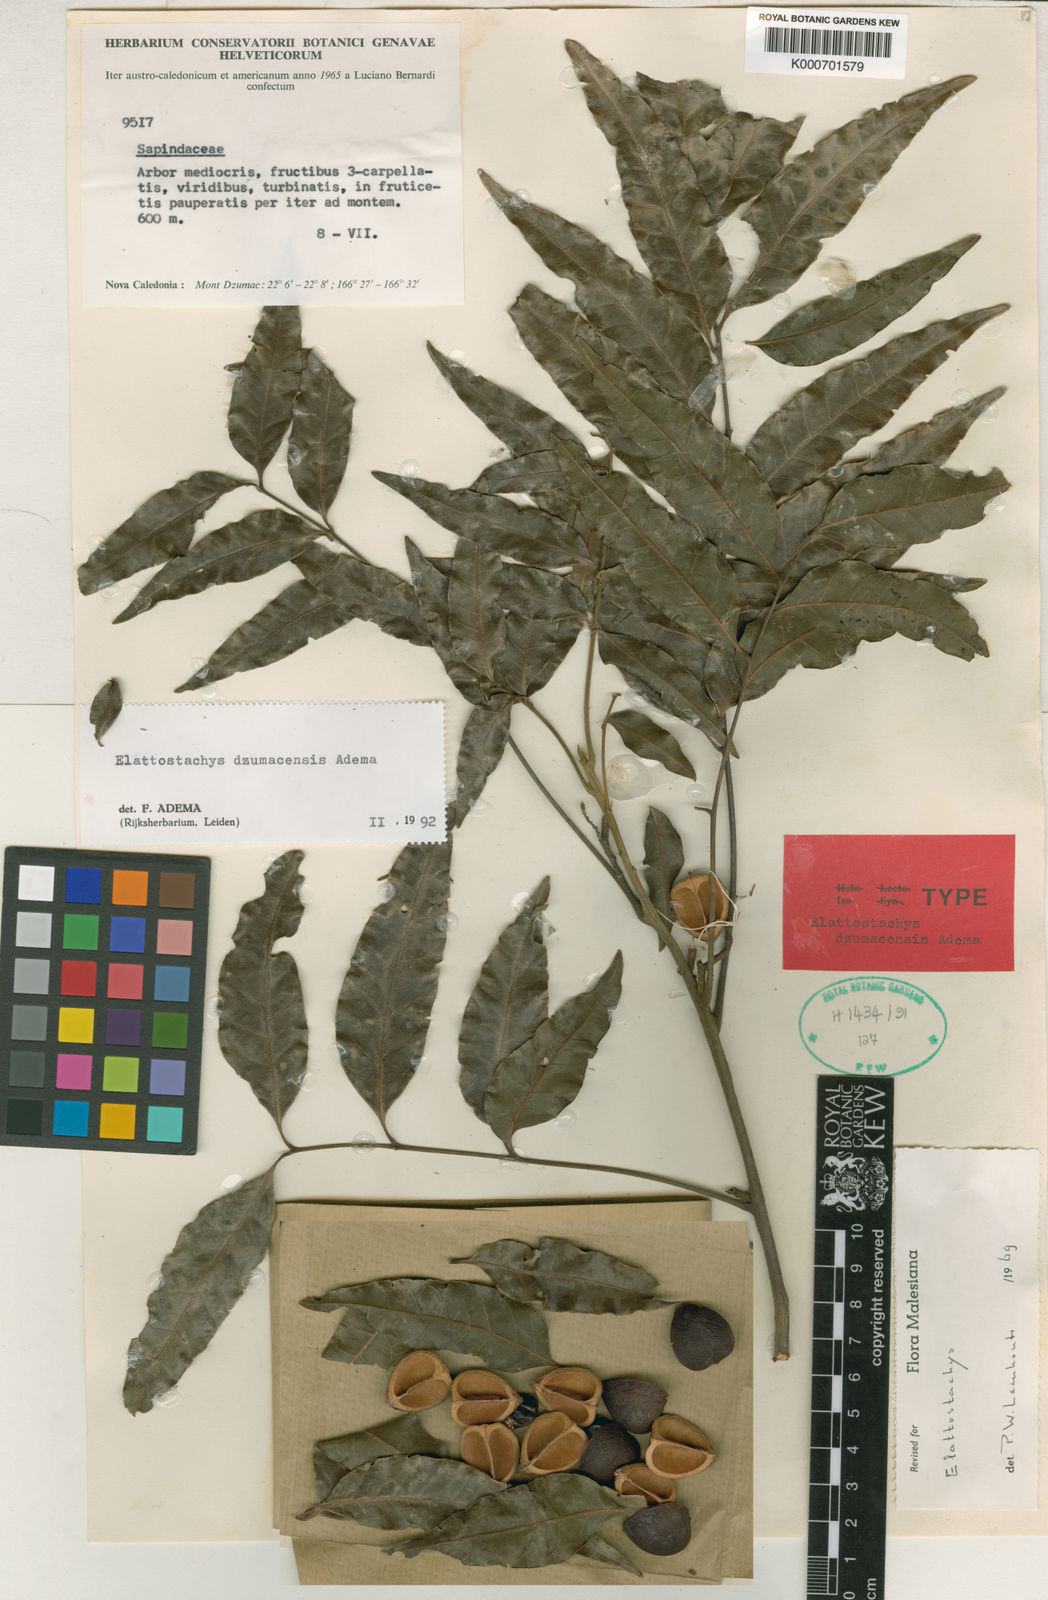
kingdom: Plantae
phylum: Tracheophyta
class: Magnoliopsida
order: Sapindales
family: Sapindaceae
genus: Elattostachys
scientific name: Elattostachys dzumacensis
